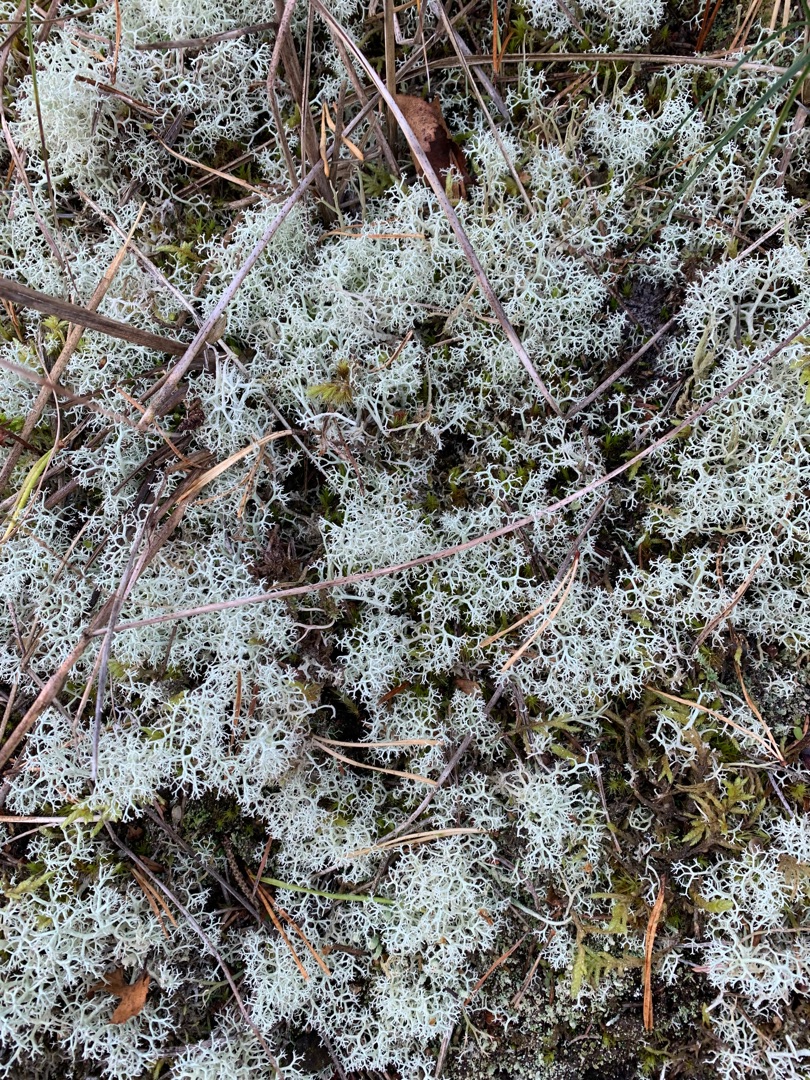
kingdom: Fungi
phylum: Ascomycota
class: Lecanoromycetes
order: Lecanorales
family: Cladoniaceae
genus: Cladonia
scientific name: Cladonia portentosa
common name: Hede-rensdyrlav
